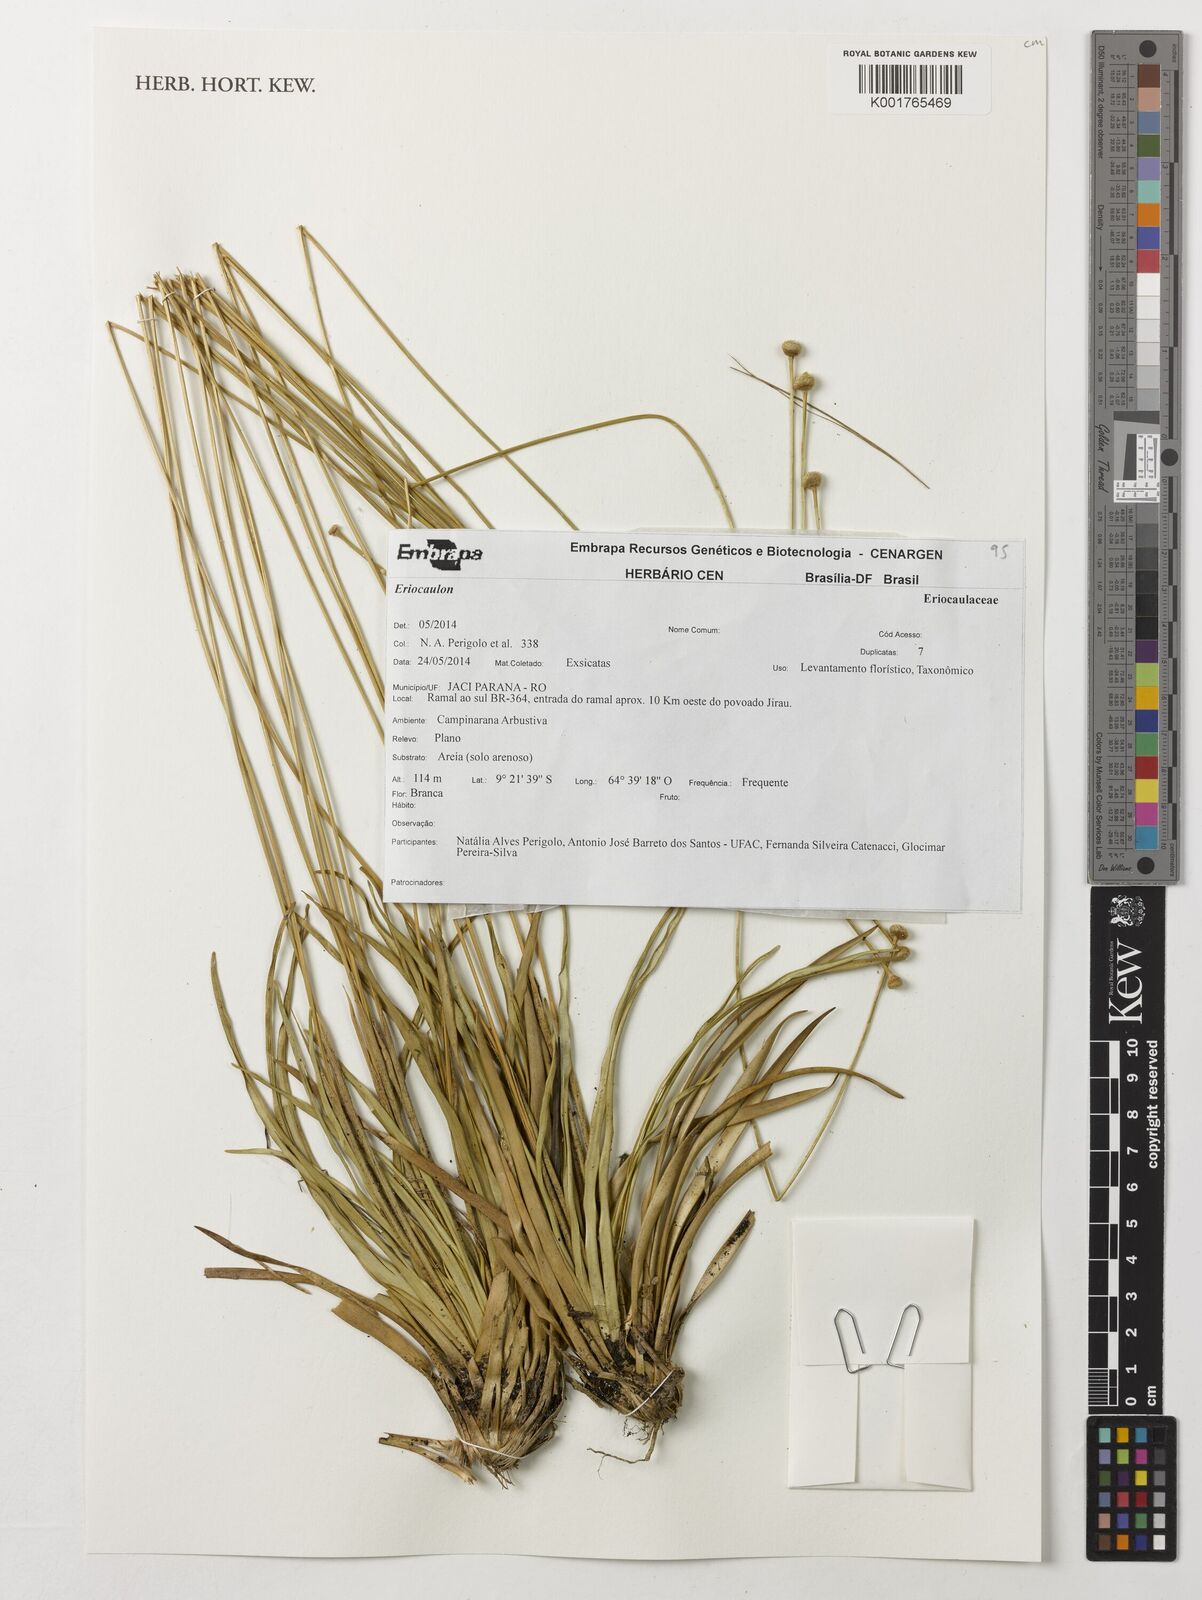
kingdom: Plantae
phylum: Tracheophyta
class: Liliopsida
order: Poales
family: Eriocaulaceae
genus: Eriocaulon
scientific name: Eriocaulon
